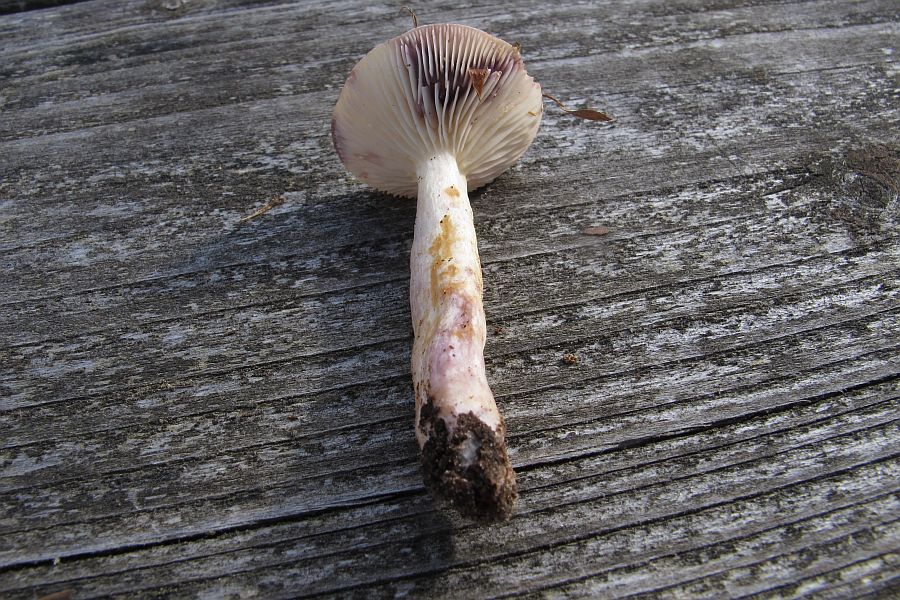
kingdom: Fungi
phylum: Basidiomycota
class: Agaricomycetes
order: Russulales
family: Russulaceae
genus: Lactarius
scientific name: Lactarius aspideus
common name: pile-mælkehat
